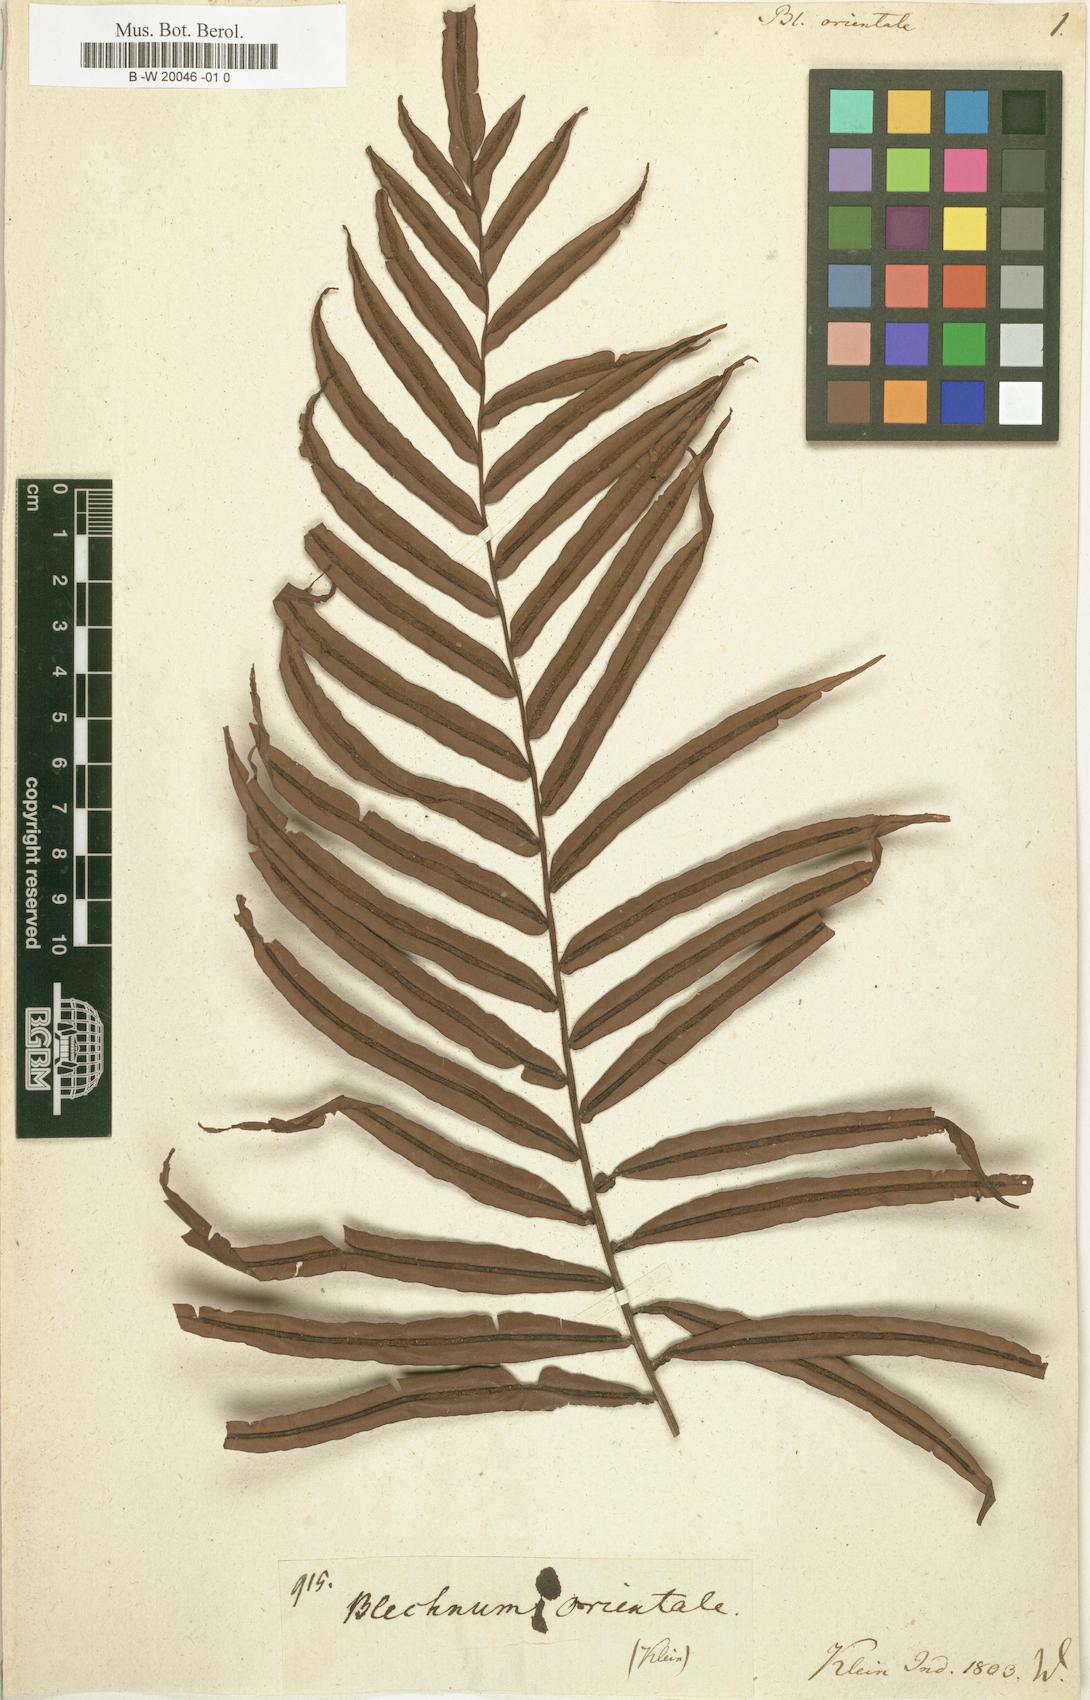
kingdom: Plantae
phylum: Tracheophyta
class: Polypodiopsida
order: Polypodiales
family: Blechnaceae
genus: Blechnopsis
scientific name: Blechnopsis orientalis
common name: Oriental blechnum
